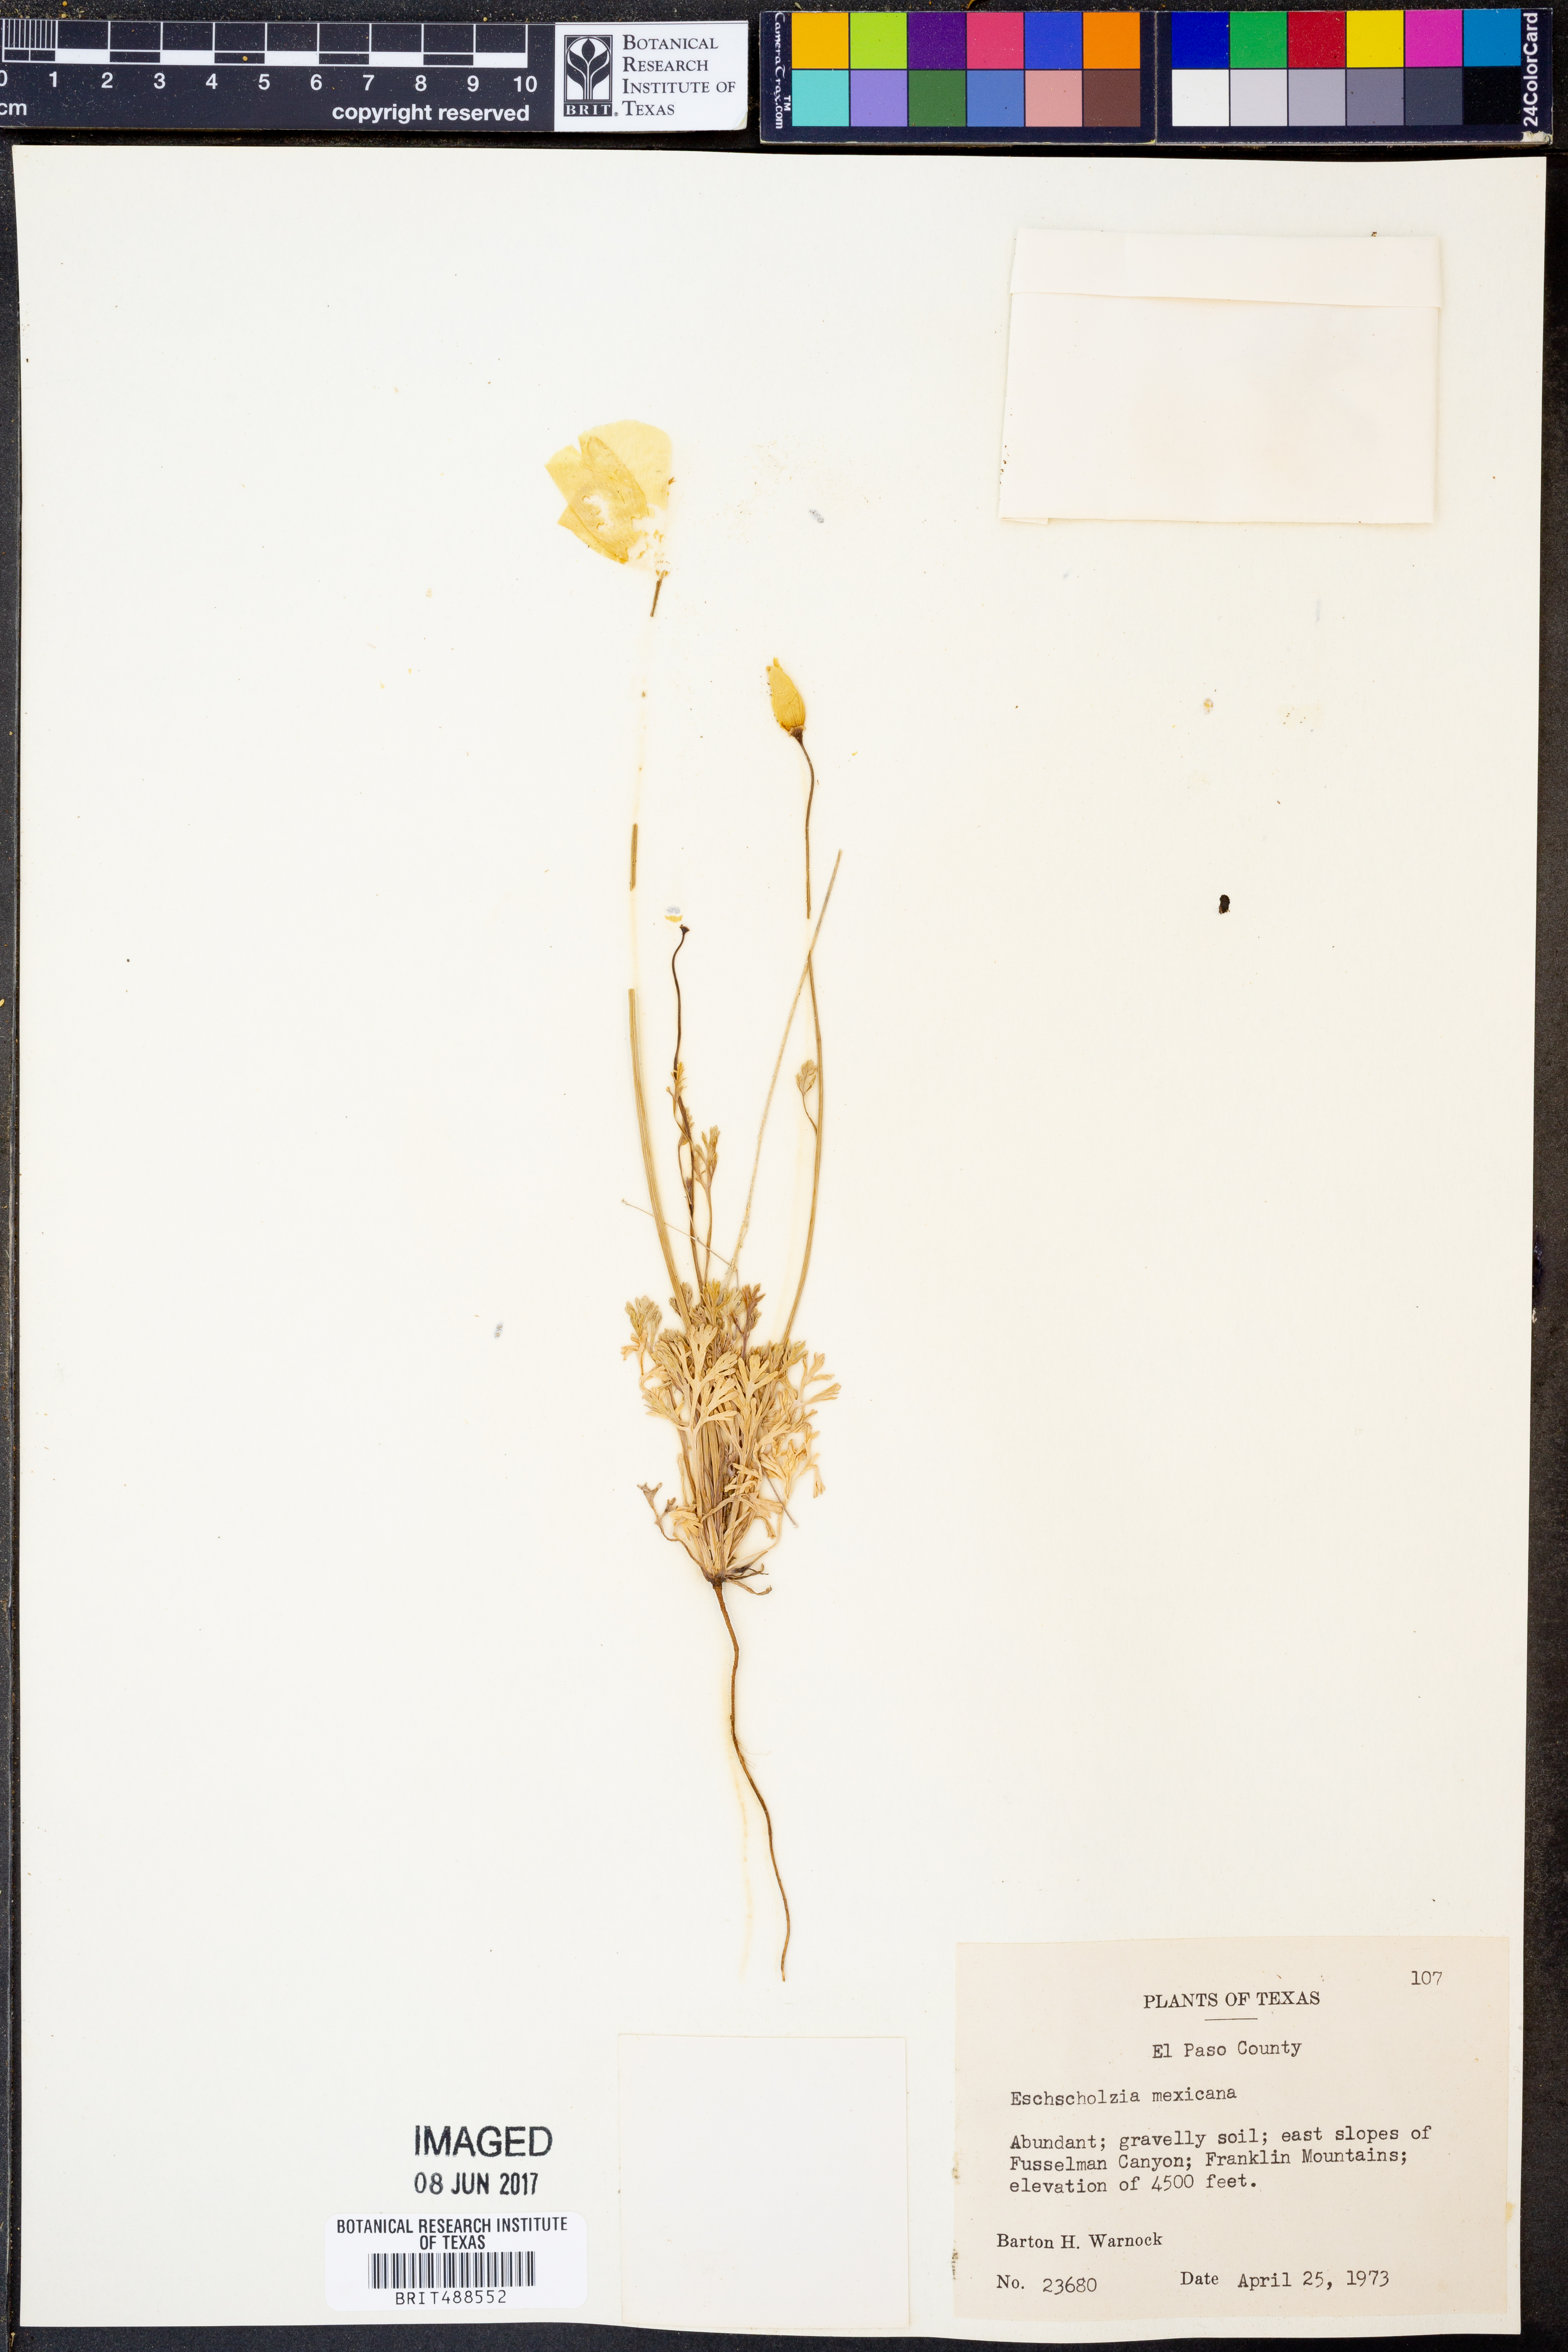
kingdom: Plantae
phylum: Tracheophyta
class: Magnoliopsida
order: Ranunculales
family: Papaveraceae
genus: Eschscholzia
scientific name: Eschscholzia californica
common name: California poppy
